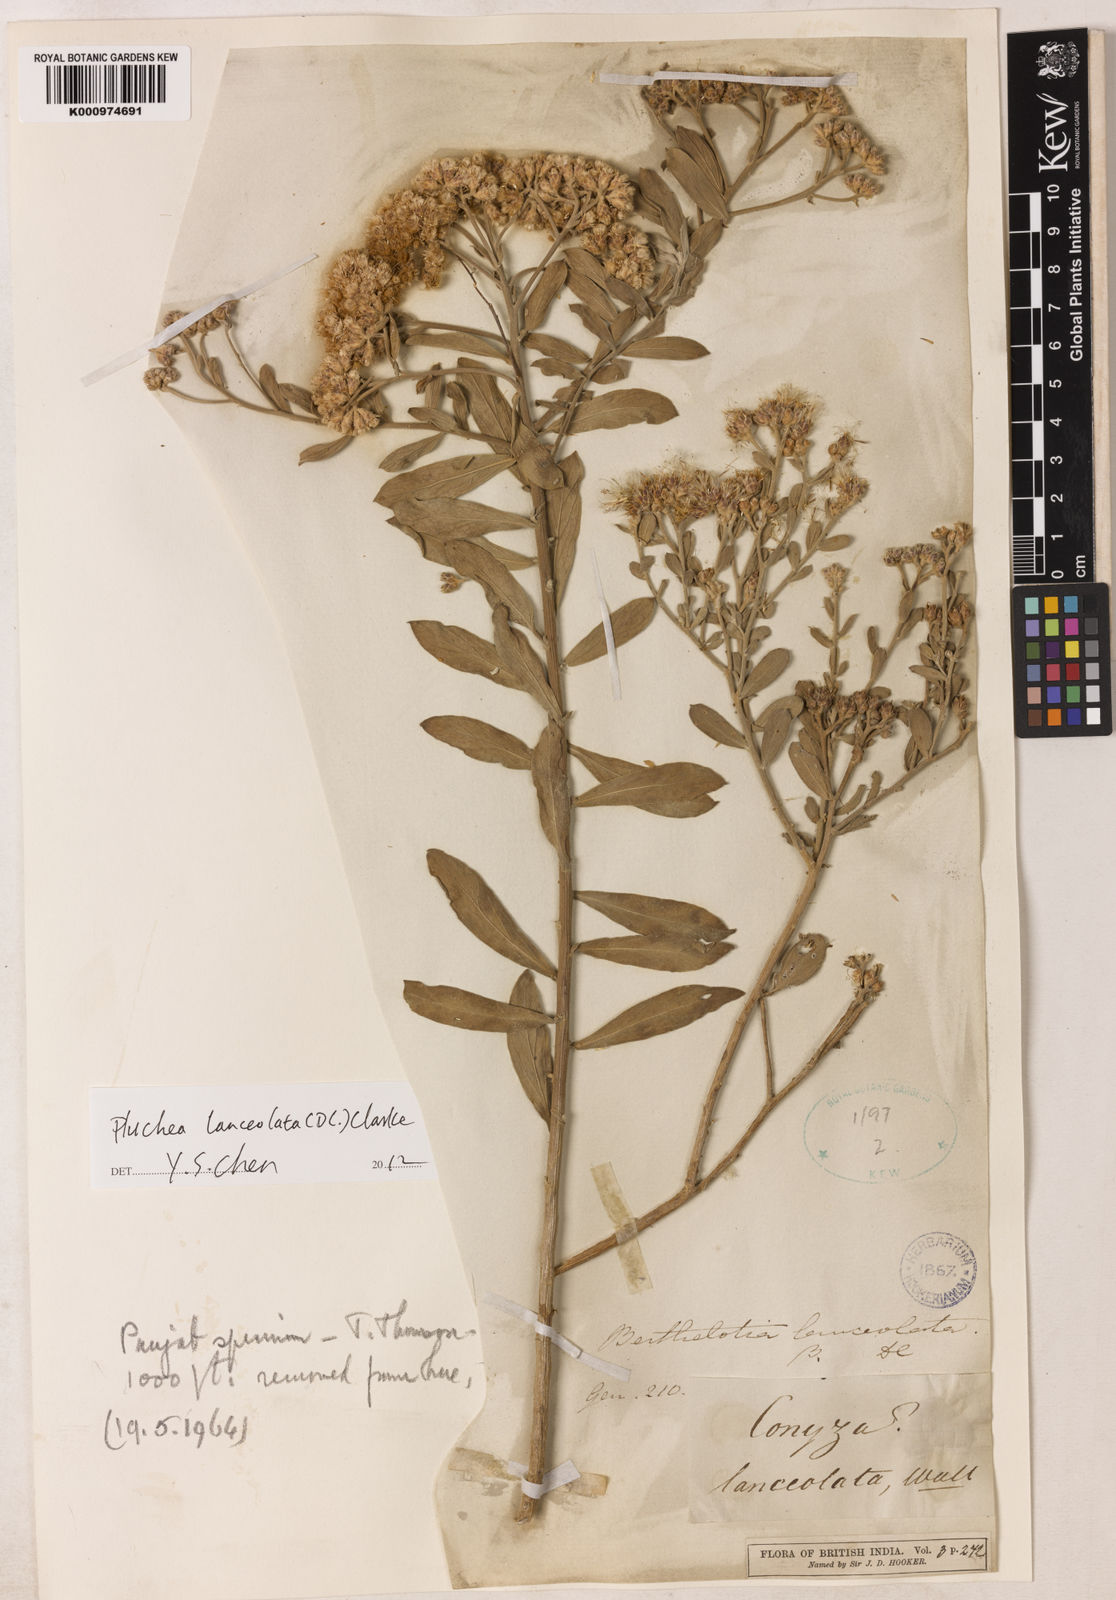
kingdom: Plantae
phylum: Tracheophyta
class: Magnoliopsida
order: Asterales
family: Asteraceae
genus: Pluchea
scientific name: Pluchea lanceolata
